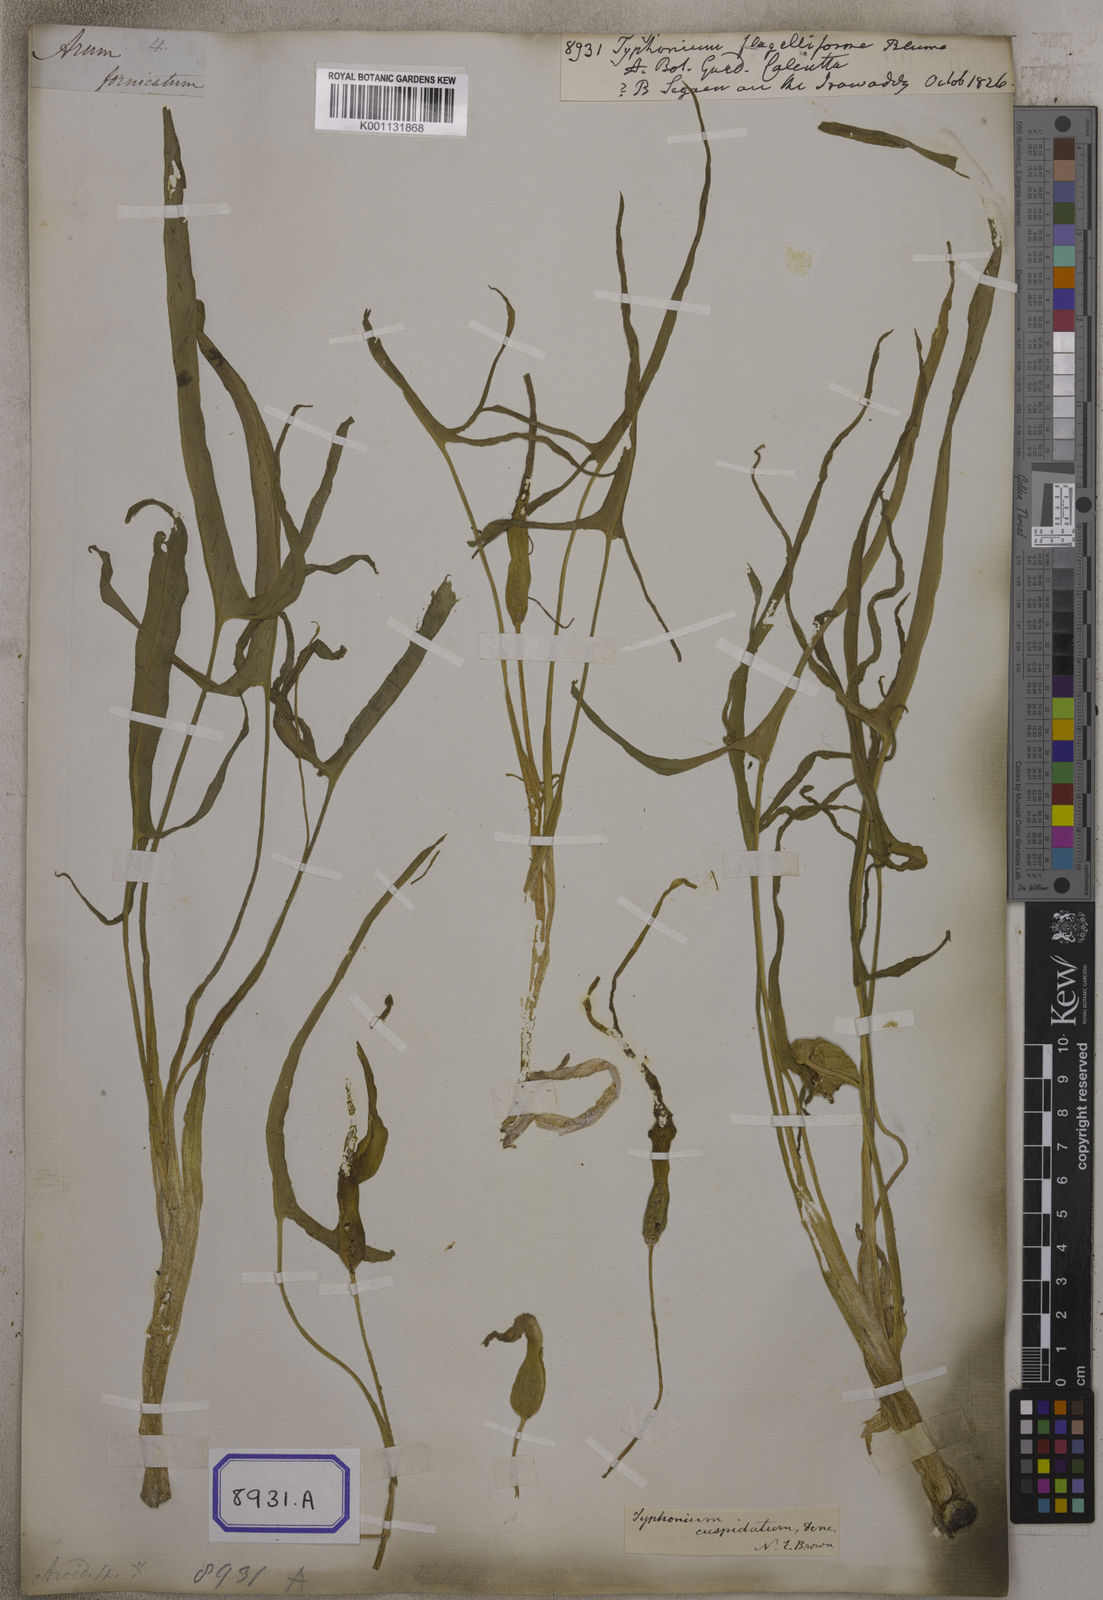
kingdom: Plantae
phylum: Tracheophyta
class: Liliopsida
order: Alismatales
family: Araceae
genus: Typhonium
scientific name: Typhonium flagelliforme
